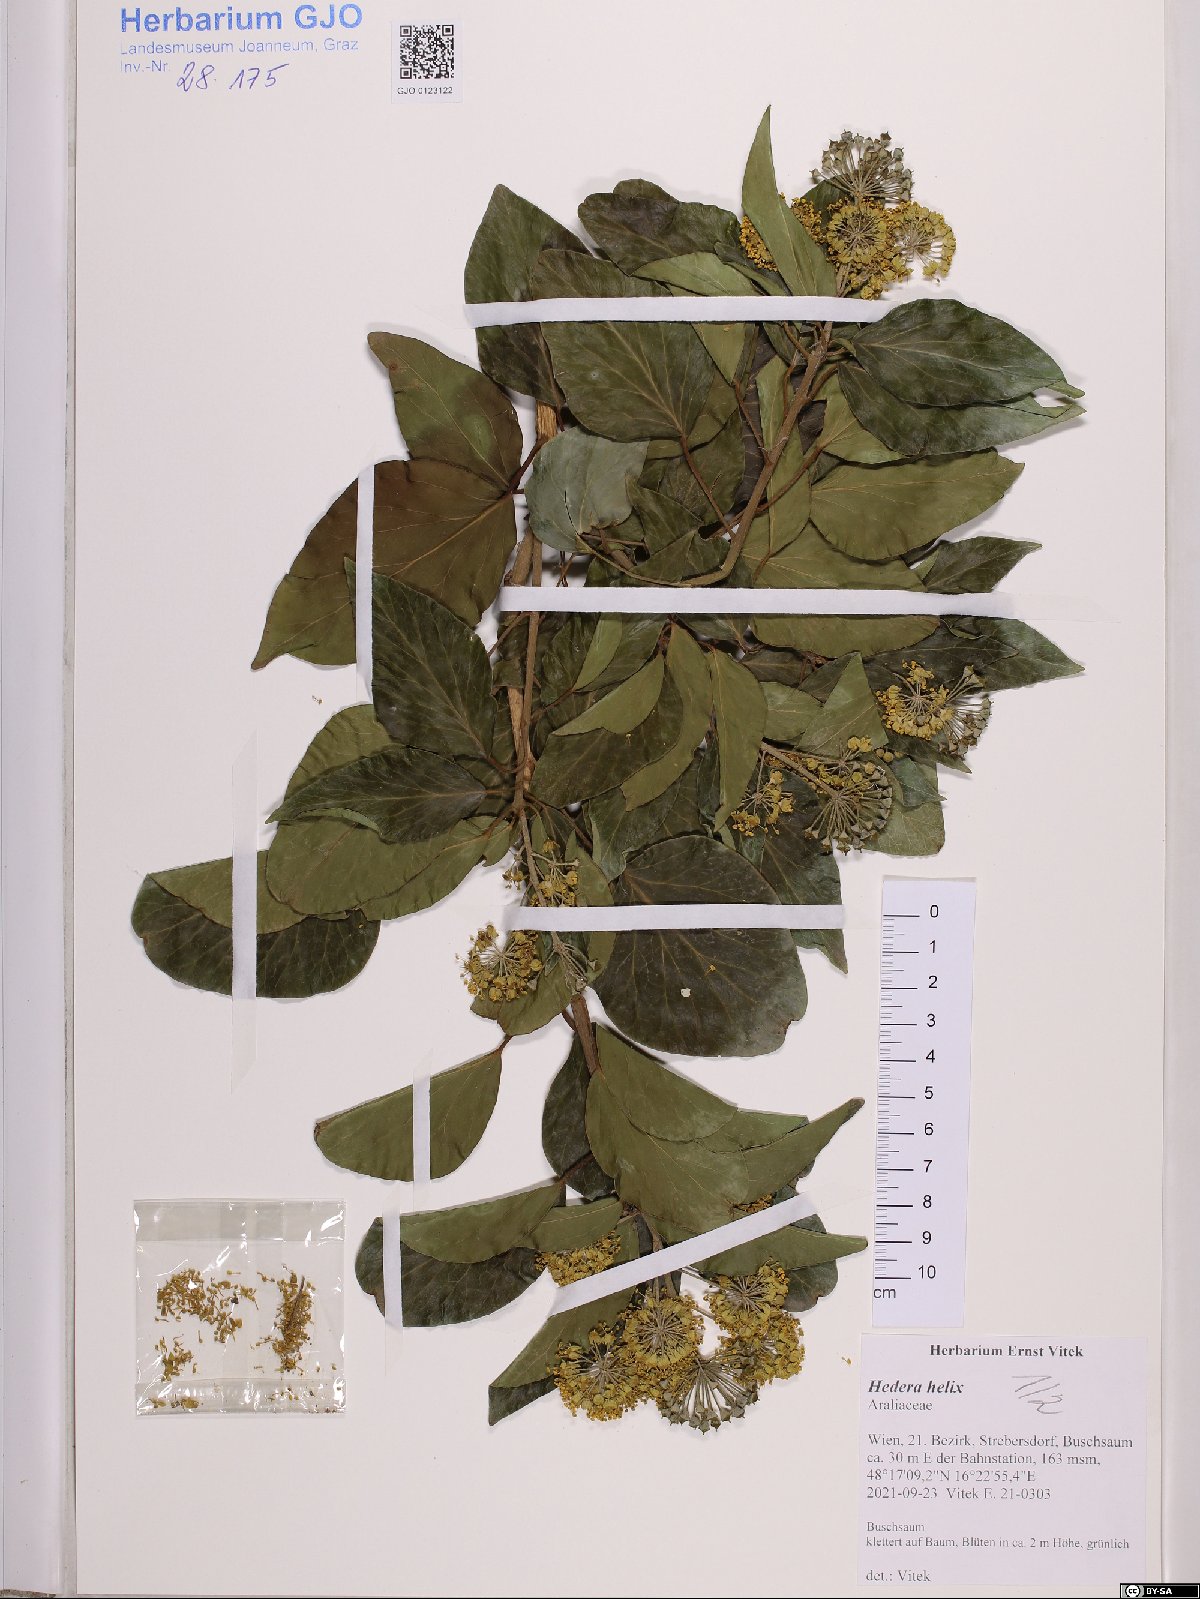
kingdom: Plantae
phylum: Tracheophyta
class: Magnoliopsida
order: Apiales
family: Araliaceae
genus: Hedera
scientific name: Hedera helix
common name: Ivy
